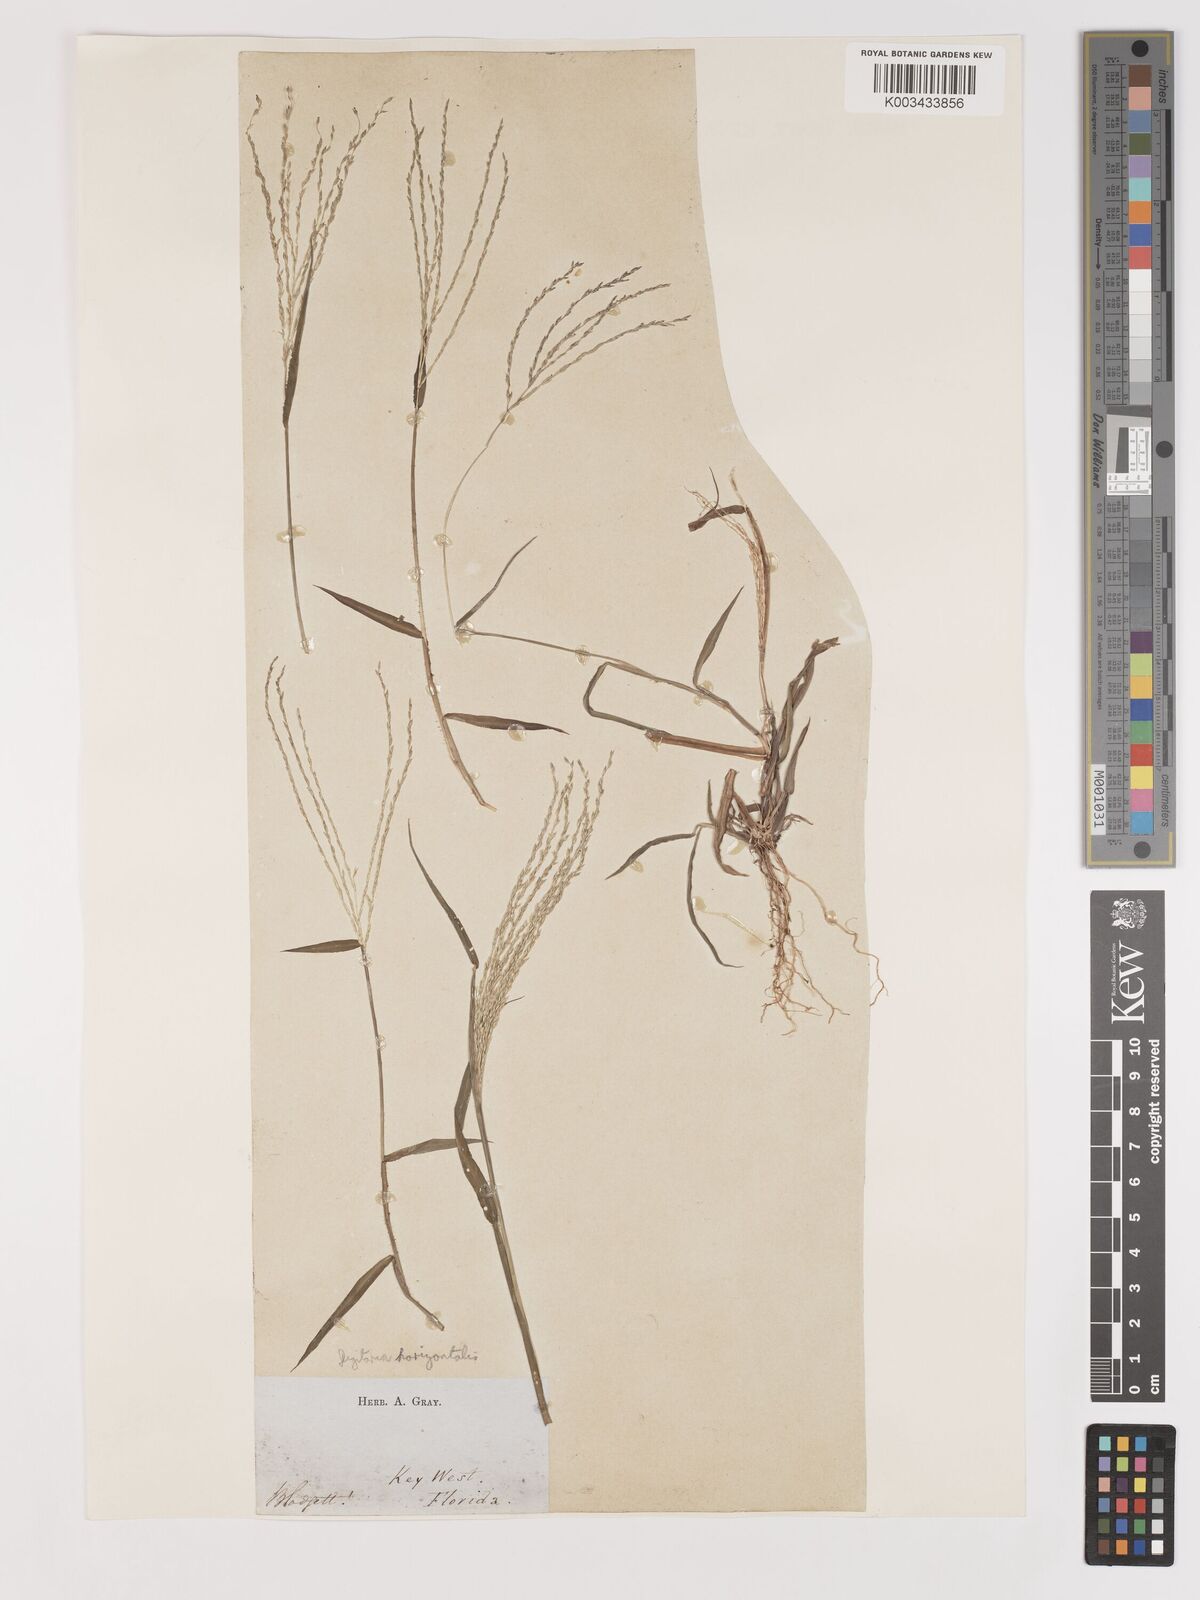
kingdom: Plantae
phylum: Tracheophyta
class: Liliopsida
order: Poales
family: Poaceae
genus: Digitaria
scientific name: Digitaria horizontalis
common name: Jamaican crabgrass
